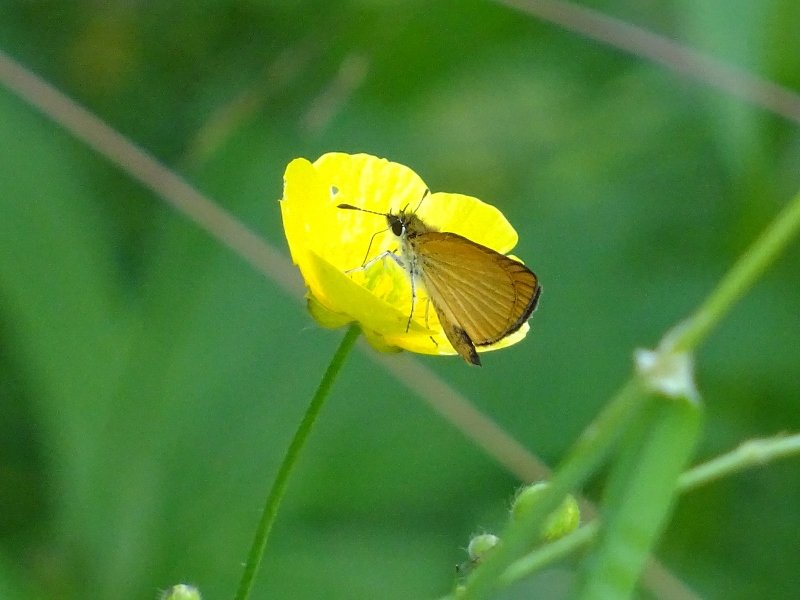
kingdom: Animalia
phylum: Arthropoda
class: Insecta
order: Lepidoptera
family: Hesperiidae
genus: Ancyloxypha
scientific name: Ancyloxypha numitor
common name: Least Skipper
